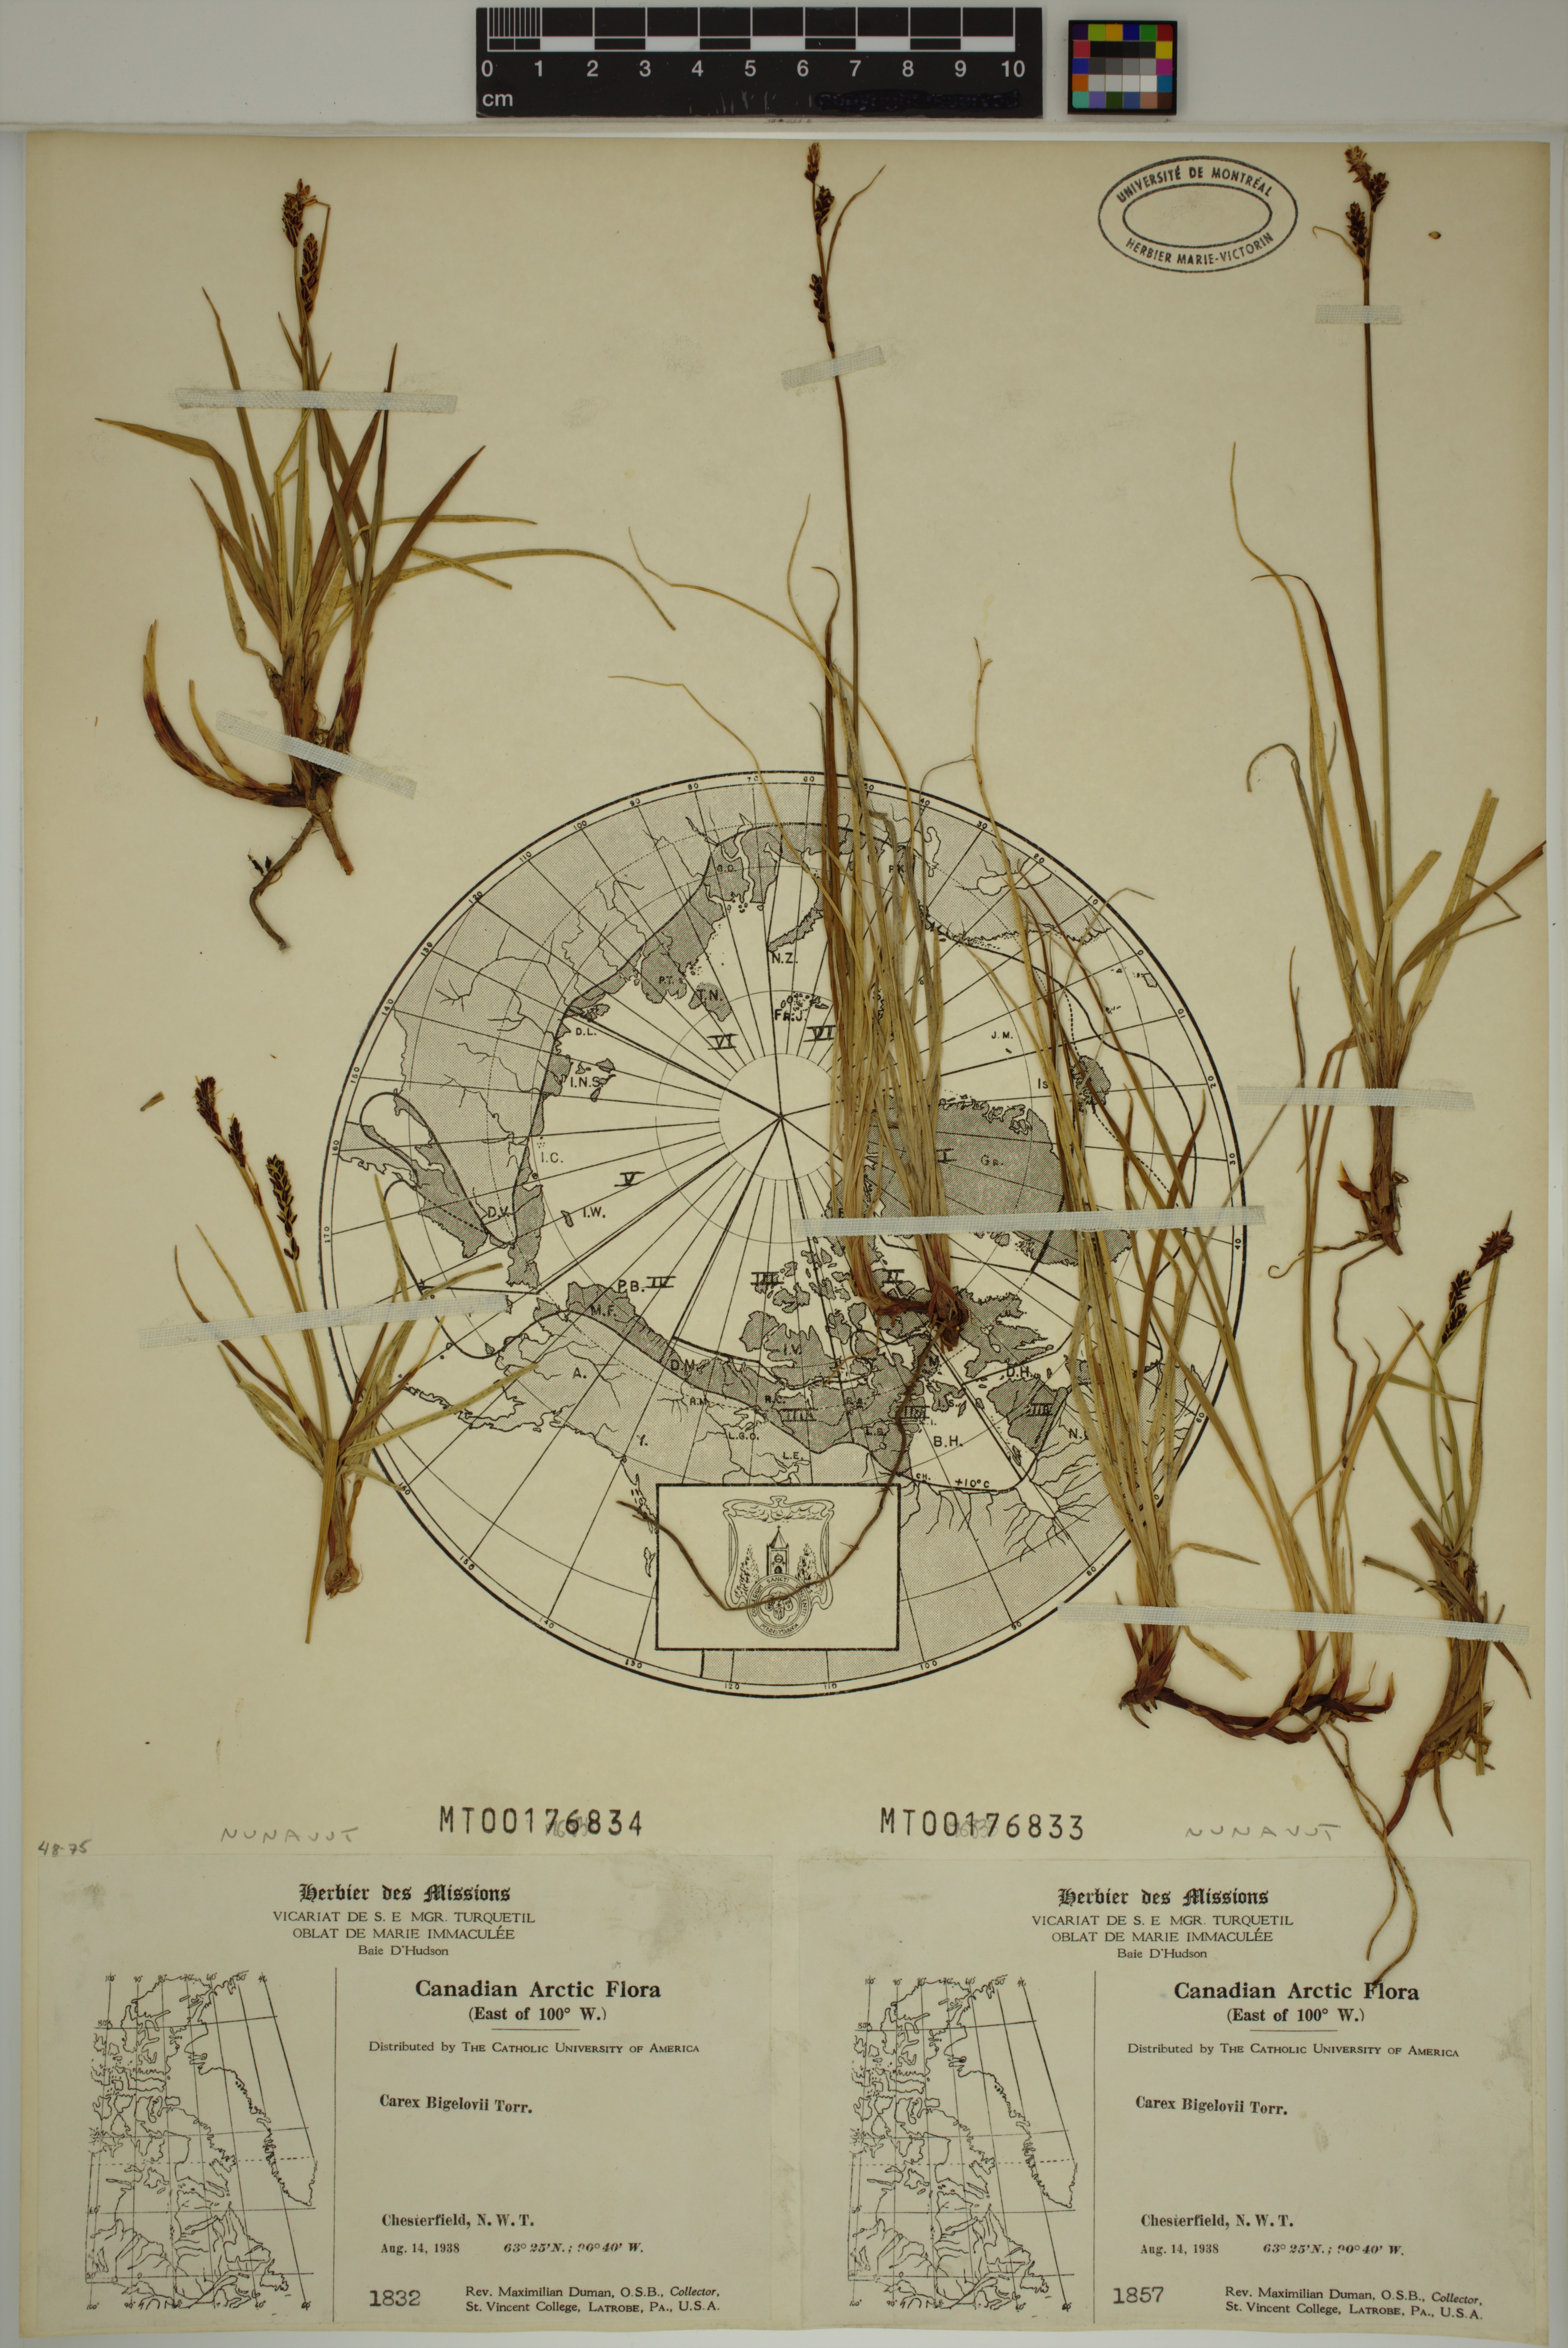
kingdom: Plantae
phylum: Tracheophyta
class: Liliopsida
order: Poales
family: Cyperaceae
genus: Carex
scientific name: Carex bigelowii
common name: Stiff sedge
